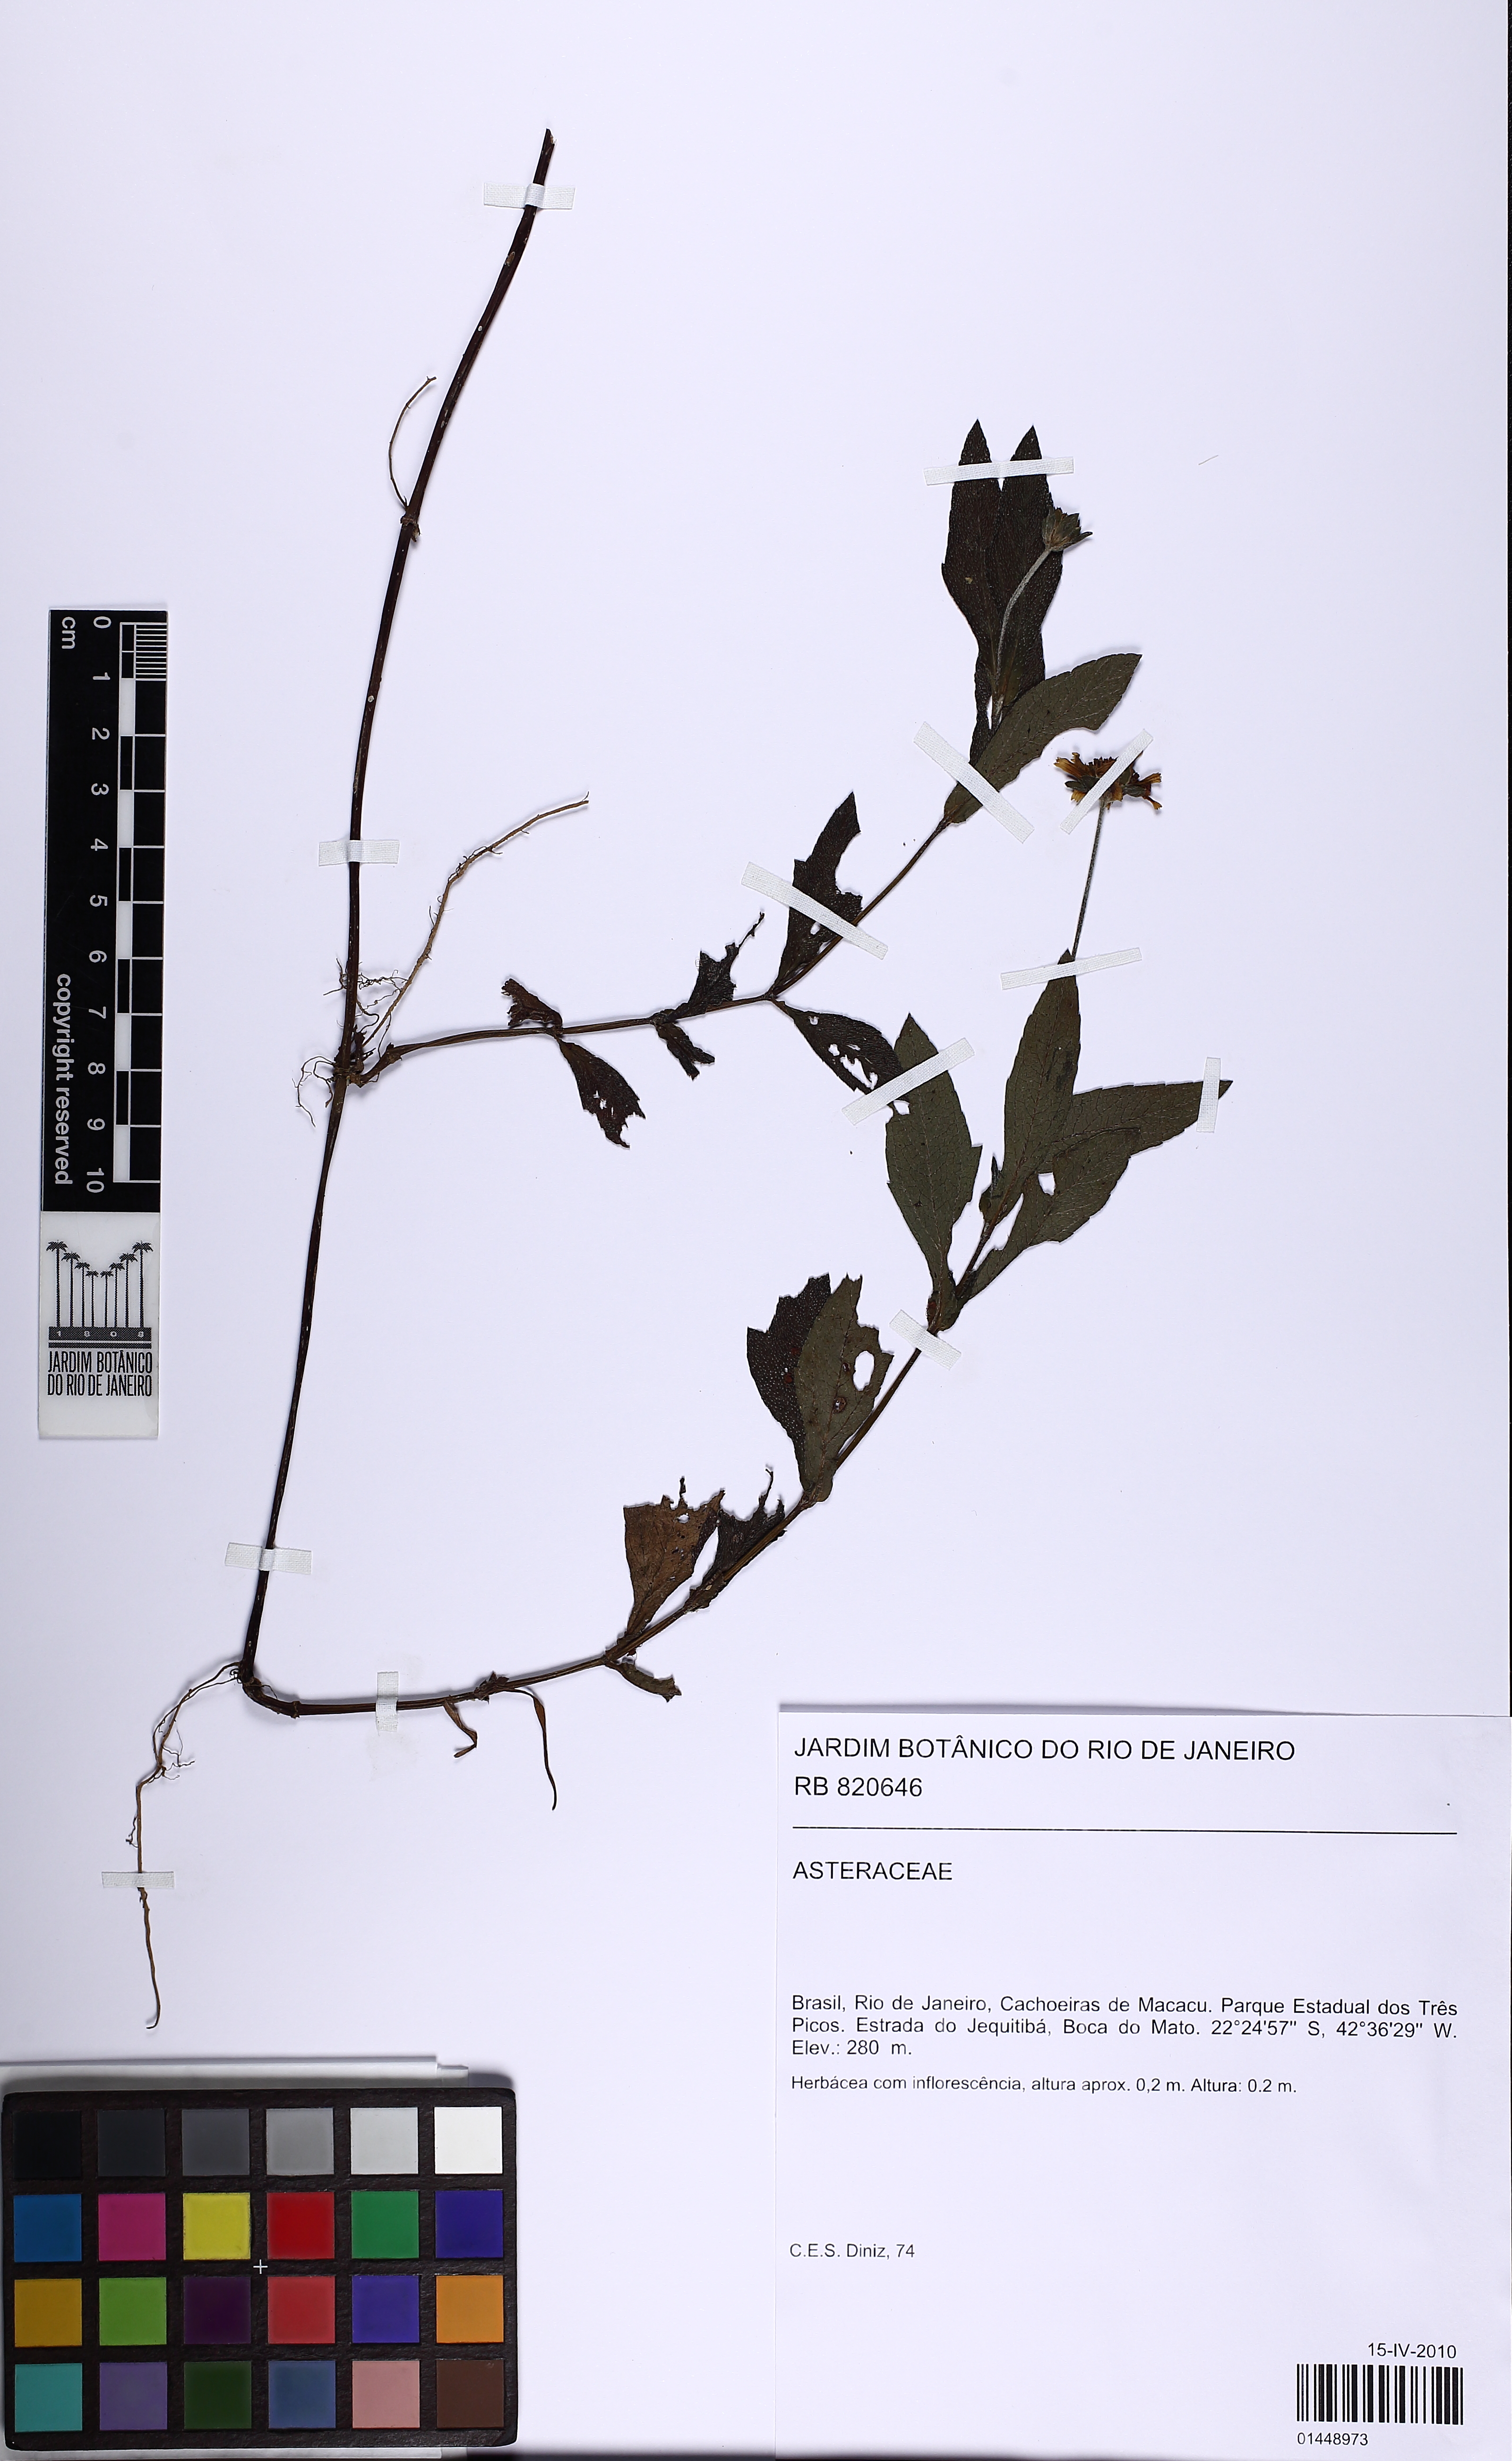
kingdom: Plantae
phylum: Tracheophyta
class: Magnoliopsida
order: Asterales
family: Asteraceae
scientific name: Asteraceae
